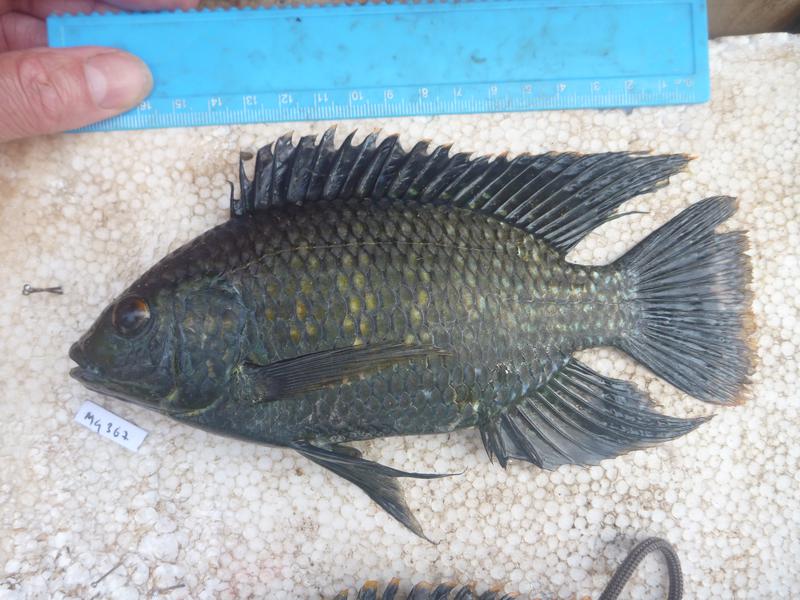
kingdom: Animalia
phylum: Chordata
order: Perciformes
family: Cichlidae
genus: Oreochromis
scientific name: Oreochromis leucostictus
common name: Blue spotted tilapia
